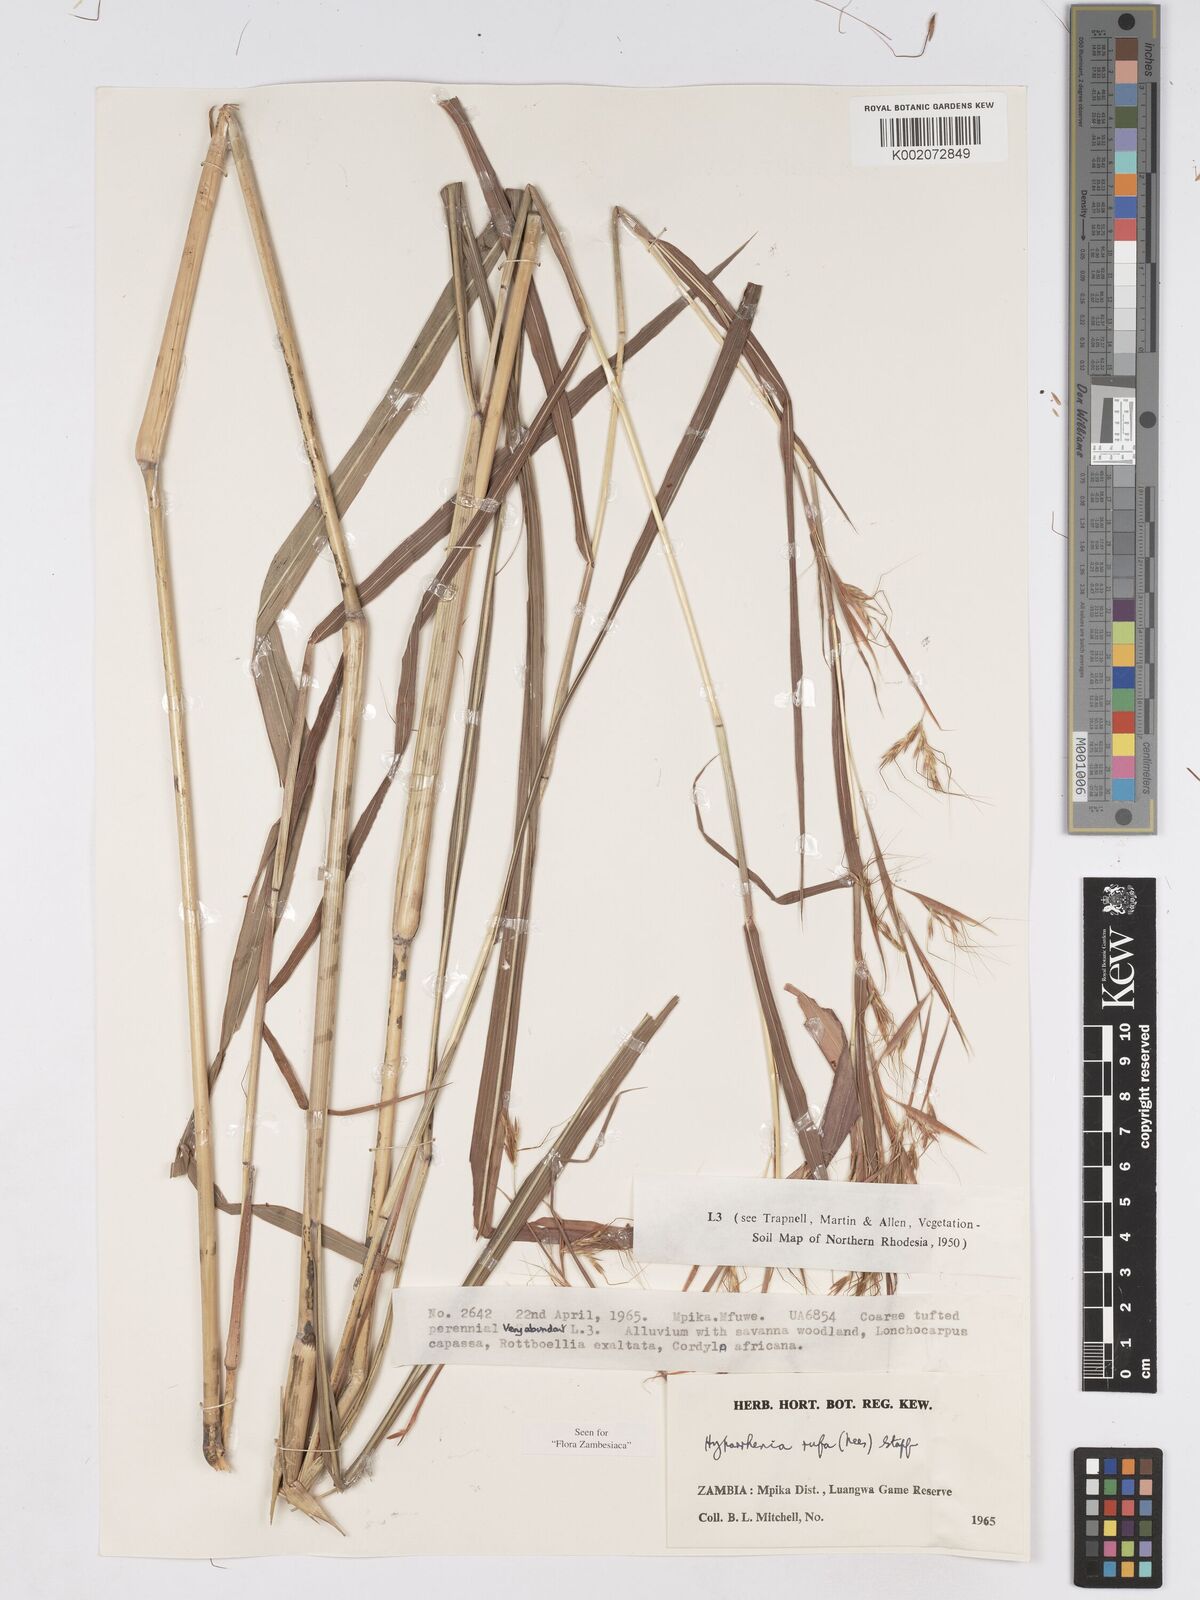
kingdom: Plantae
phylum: Tracheophyta
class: Liliopsida
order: Poales
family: Poaceae
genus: Hyparrhenia
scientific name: Hyparrhenia rufa
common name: Jaraguagrass
